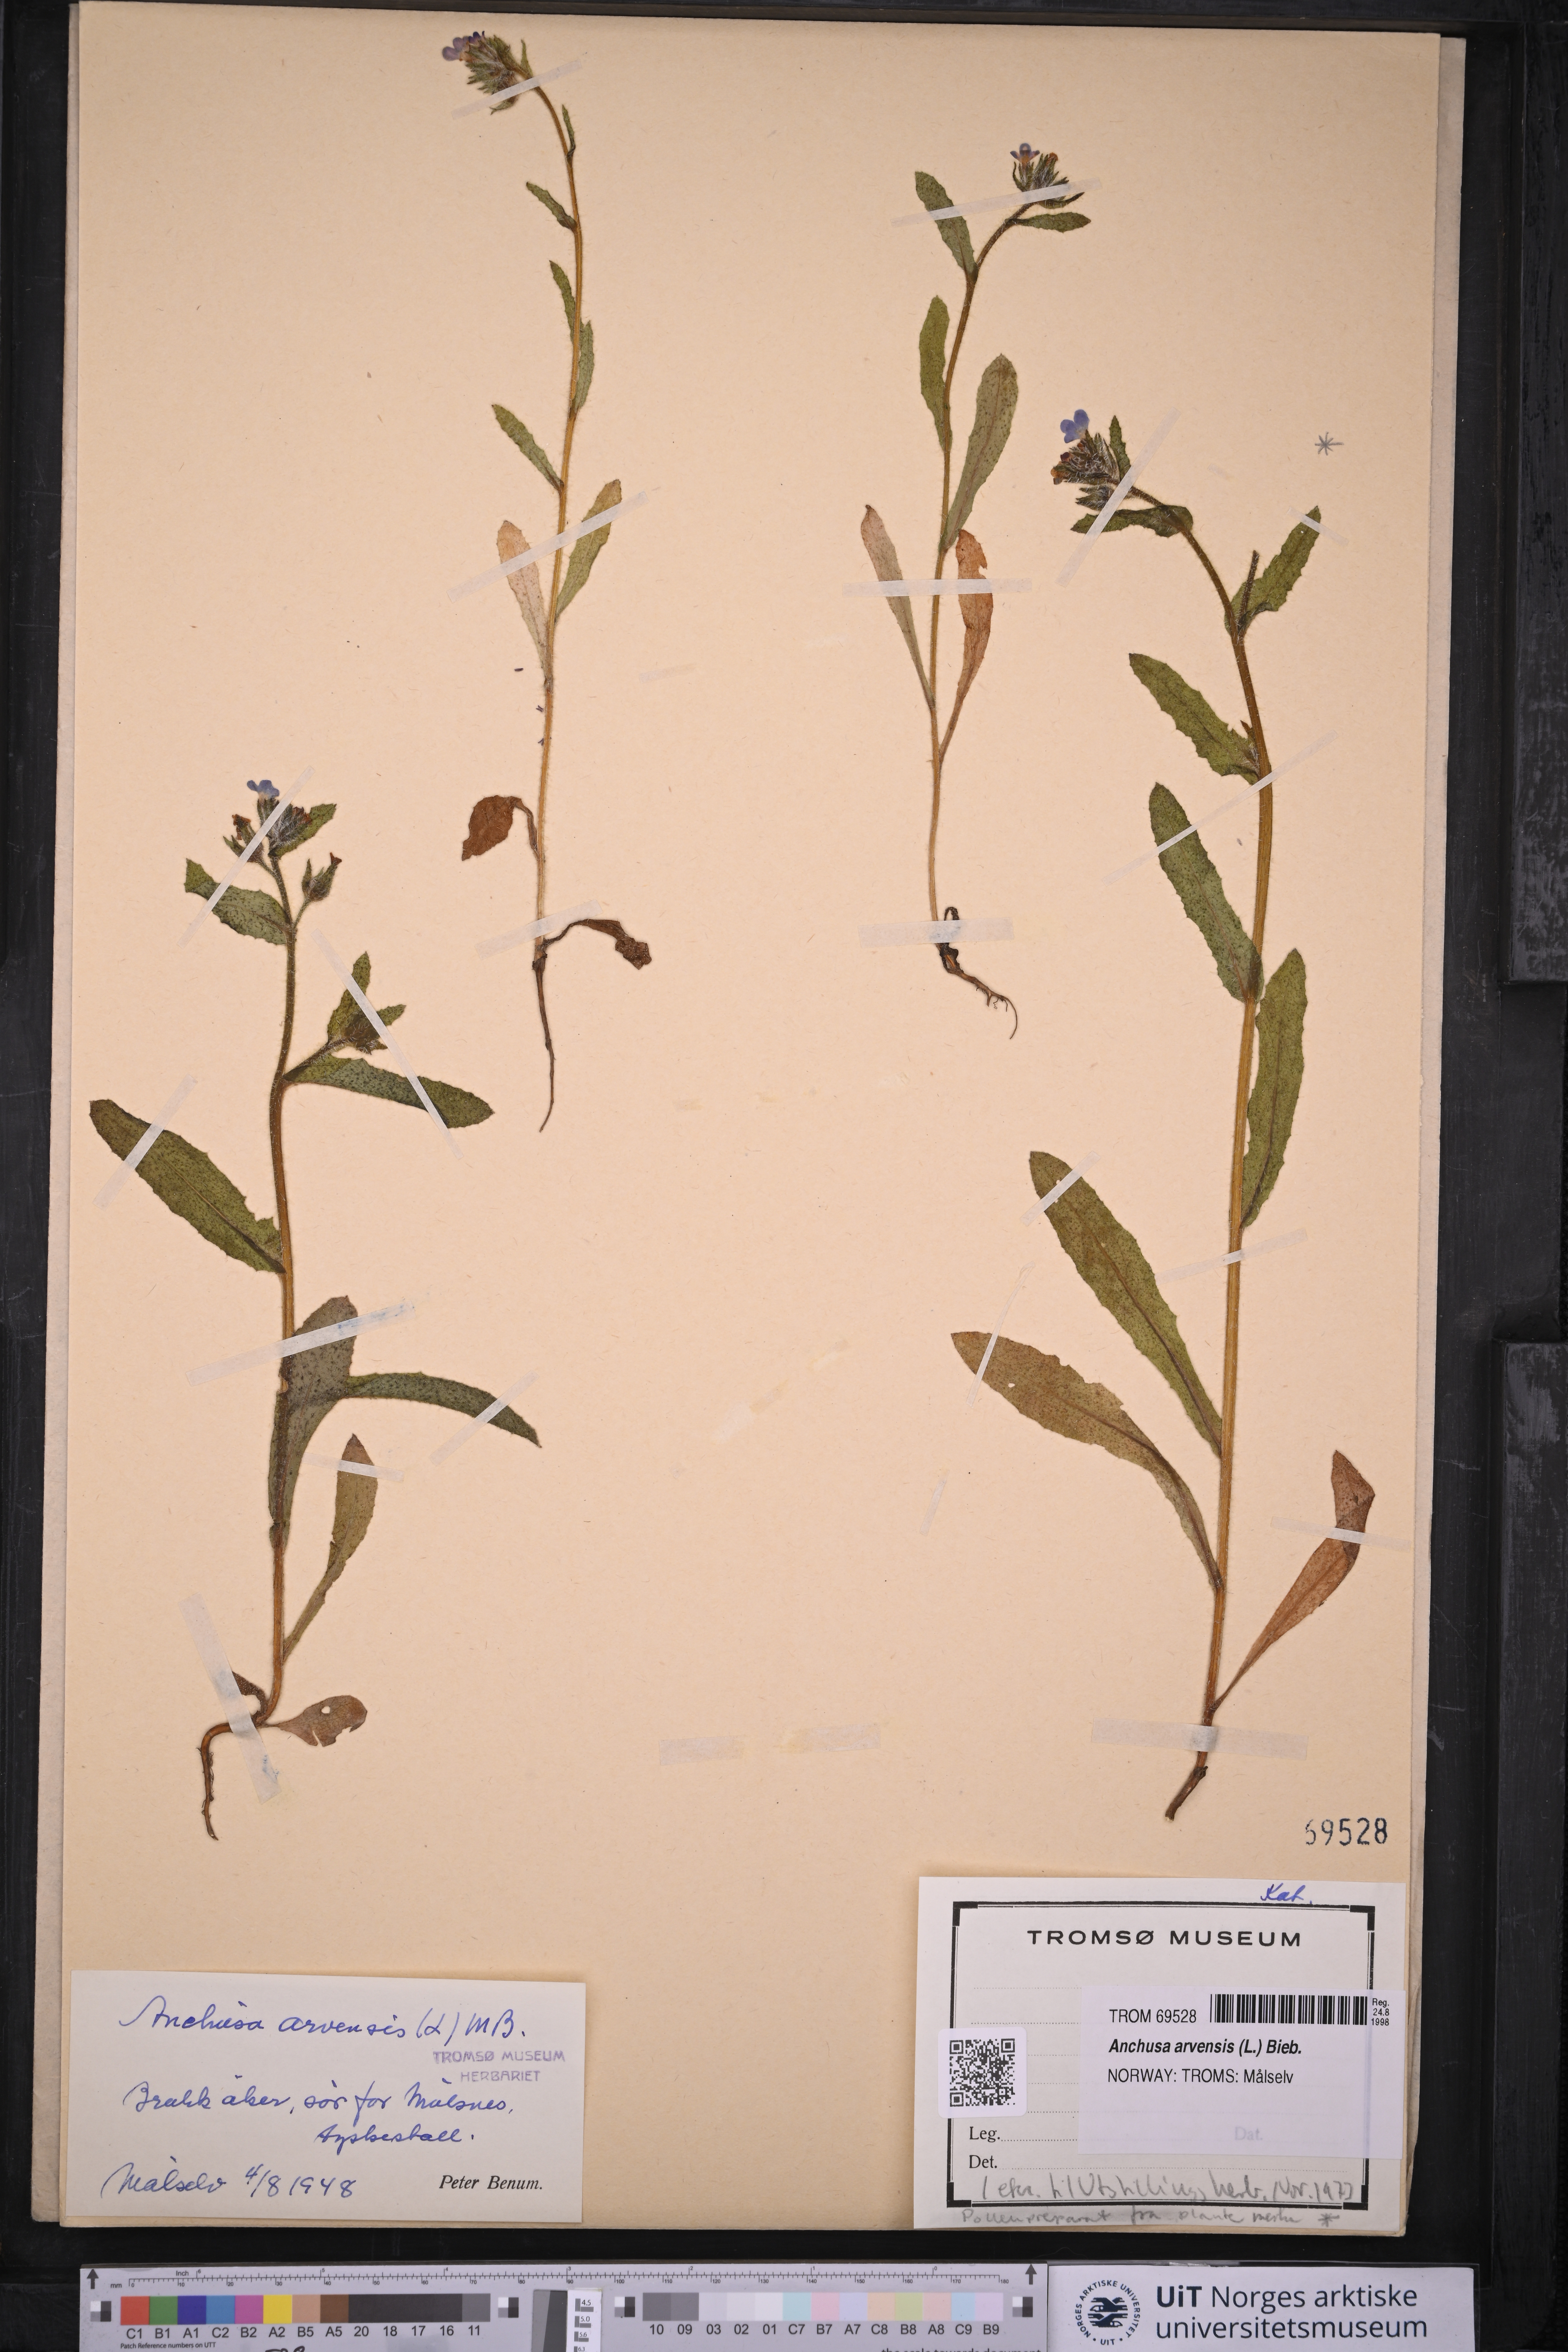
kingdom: Plantae
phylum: Tracheophyta
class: Magnoliopsida
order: Boraginales
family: Boraginaceae
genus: Lycopsis
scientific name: Lycopsis arvensis
